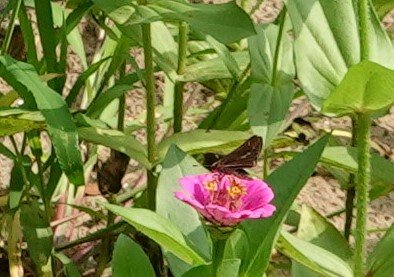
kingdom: Animalia
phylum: Arthropoda
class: Insecta
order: Lepidoptera
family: Hesperiidae
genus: Panoquina
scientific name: Panoquina panoquin
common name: Salt Marsh Skipper
